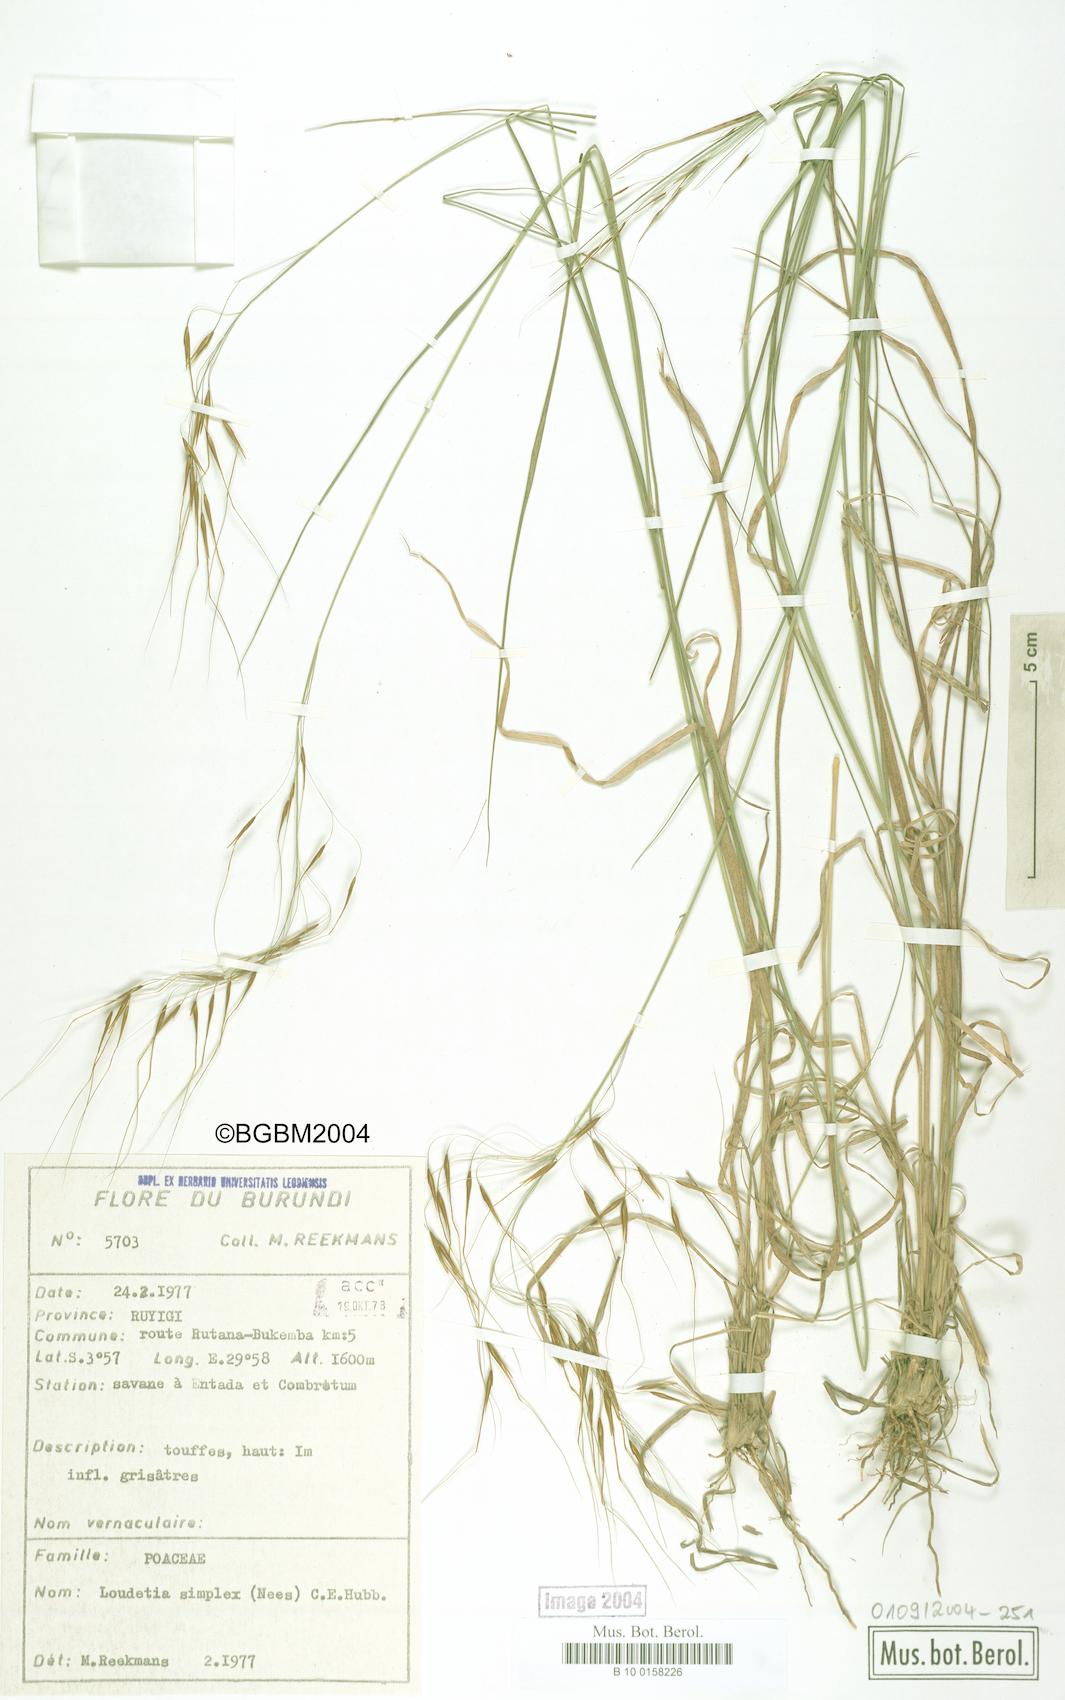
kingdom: Plantae
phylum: Tracheophyta
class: Liliopsida
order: Poales
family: Poaceae
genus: Loudetia
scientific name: Loudetia simplex
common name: Common russet grass
